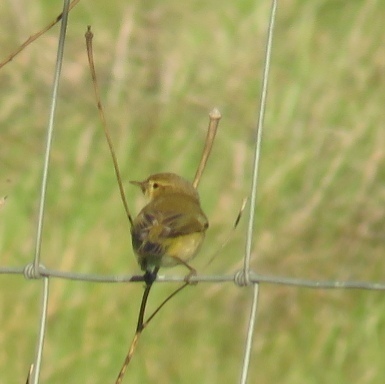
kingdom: Animalia
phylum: Chordata
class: Aves
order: Passeriformes
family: Phylloscopidae
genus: Phylloscopus
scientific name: Phylloscopus collybita
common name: Common chiffchaff
